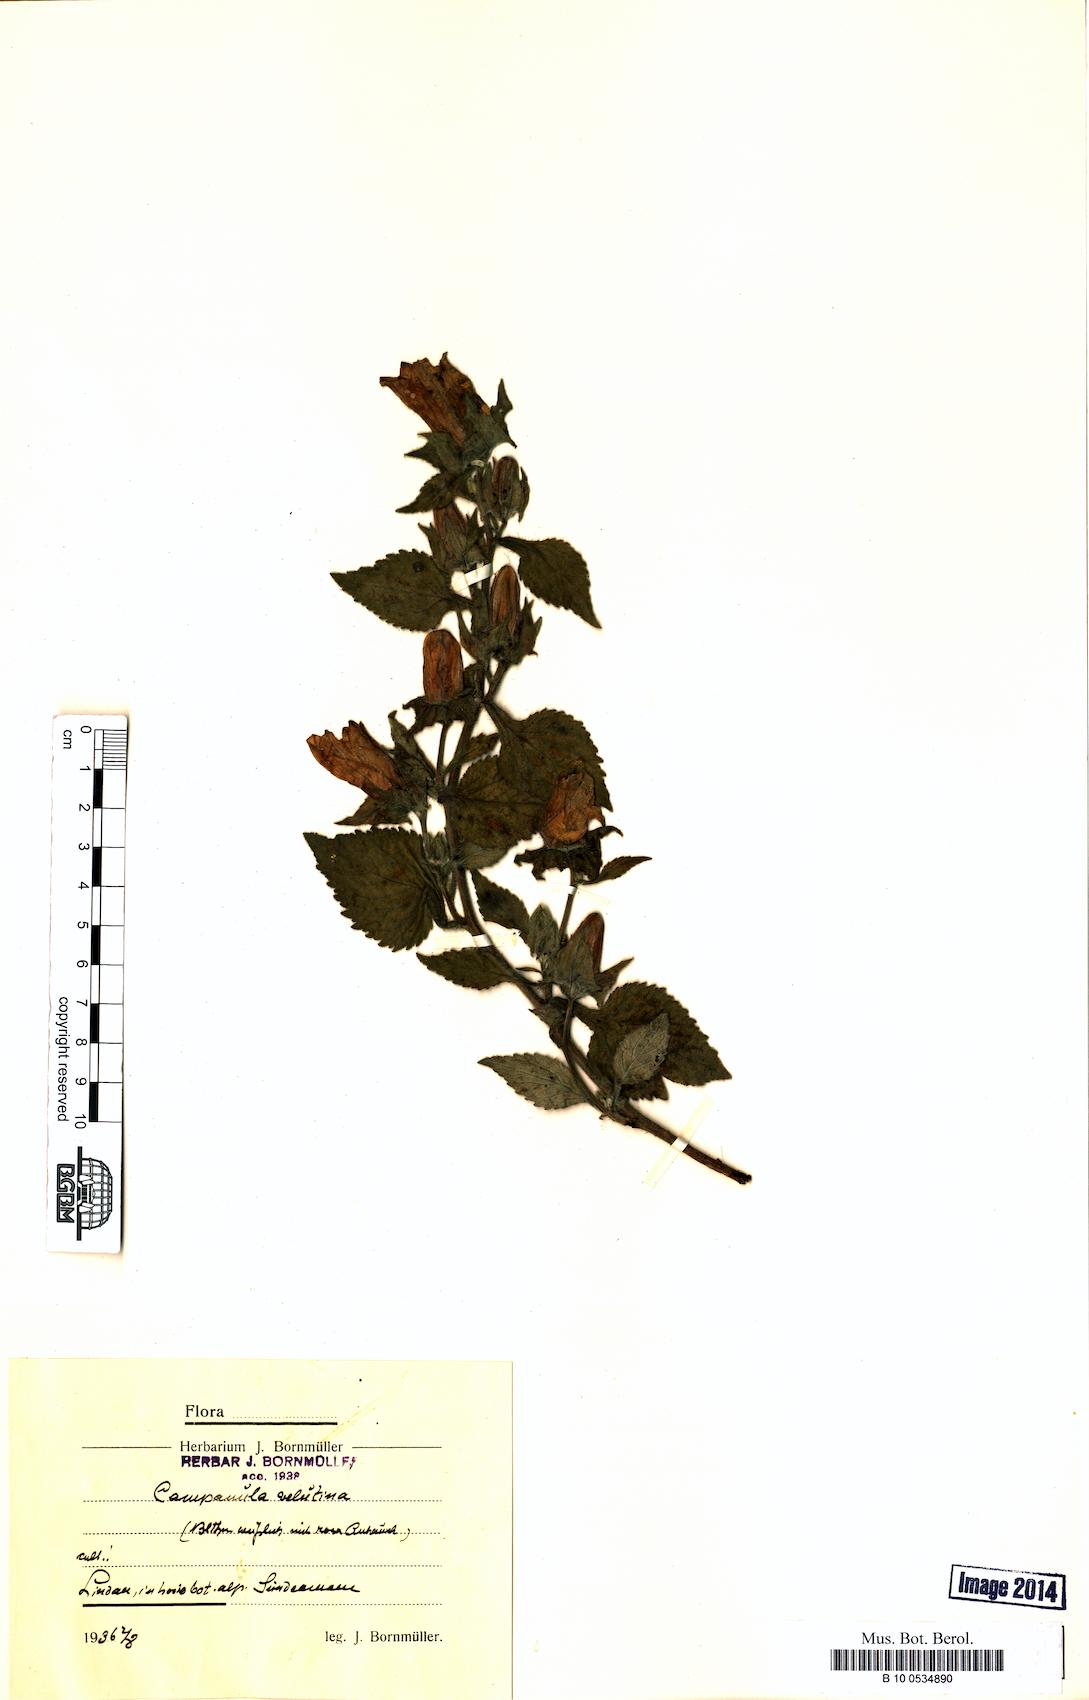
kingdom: Plantae
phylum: Tracheophyta
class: Magnoliopsida
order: Asterales
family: Campanulaceae
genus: Campanula
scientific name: Campanula lanata
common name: Woolly bellflower
